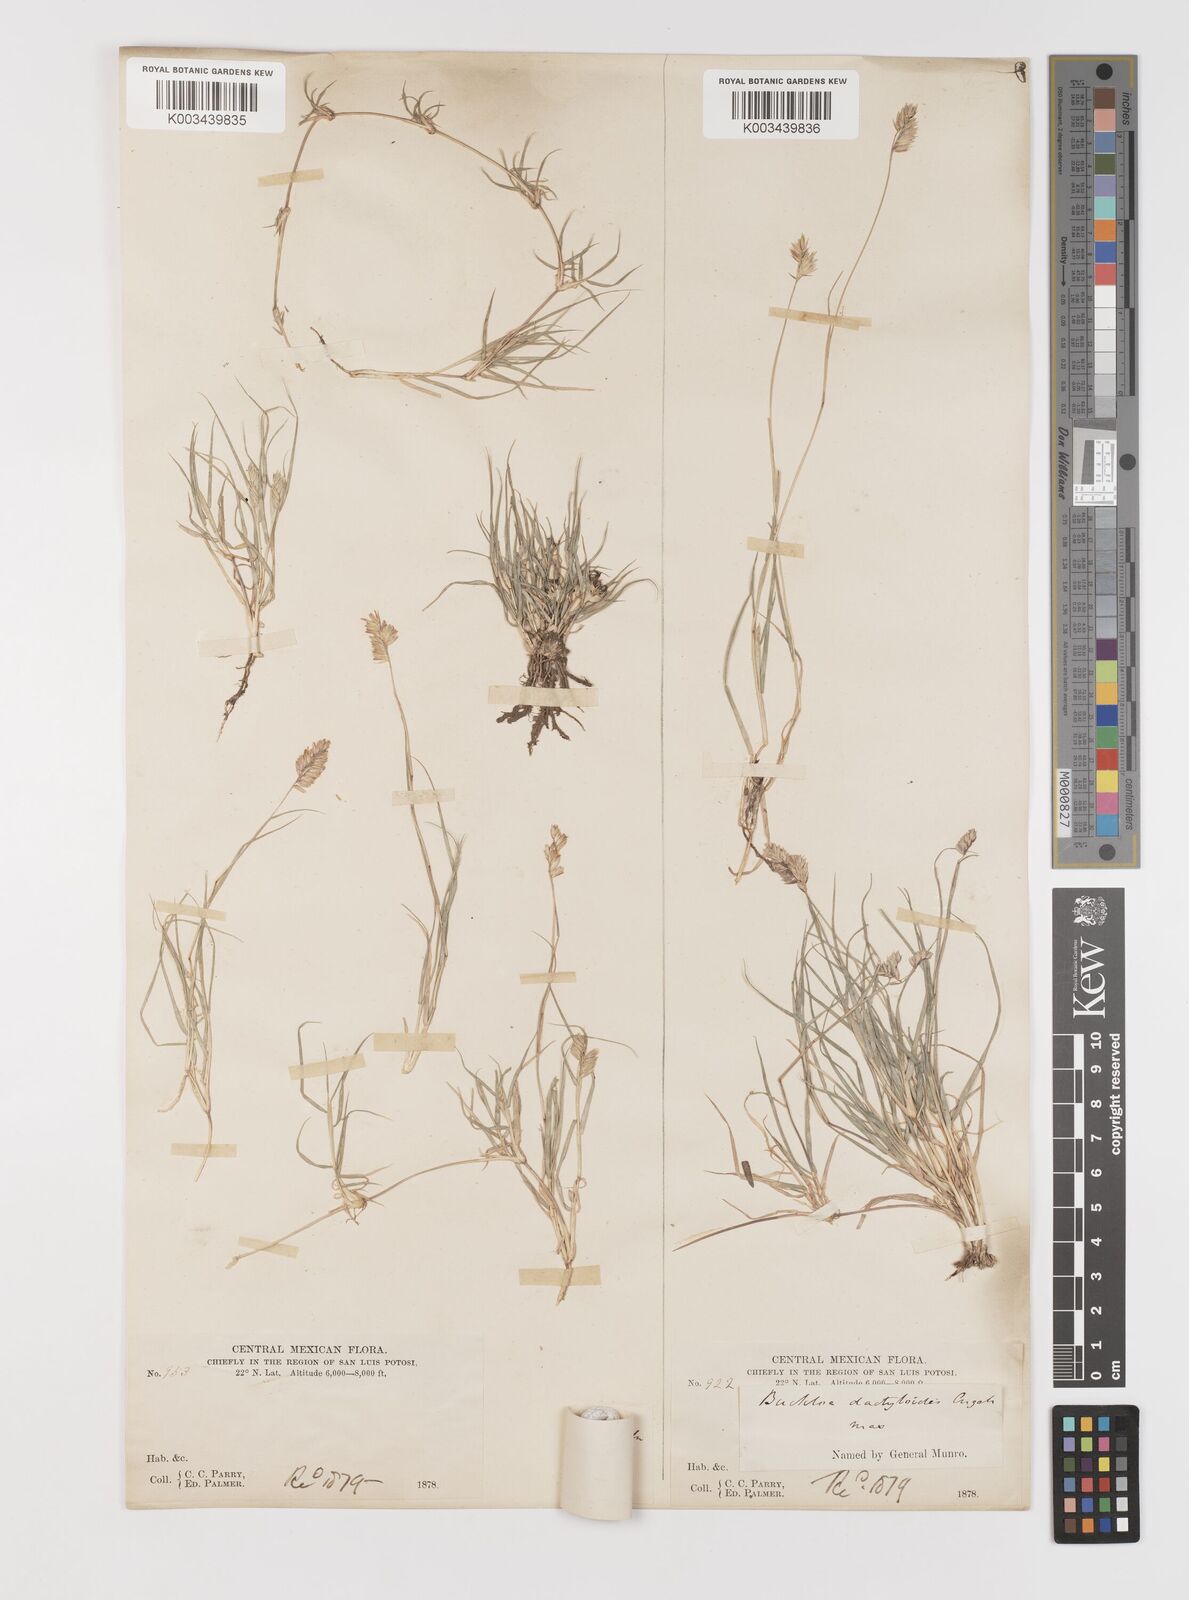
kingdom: Plantae
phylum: Tracheophyta
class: Liliopsida
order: Poales
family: Poaceae
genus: Bouteloua
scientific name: Bouteloua dactyloides
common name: Buffalo grass
